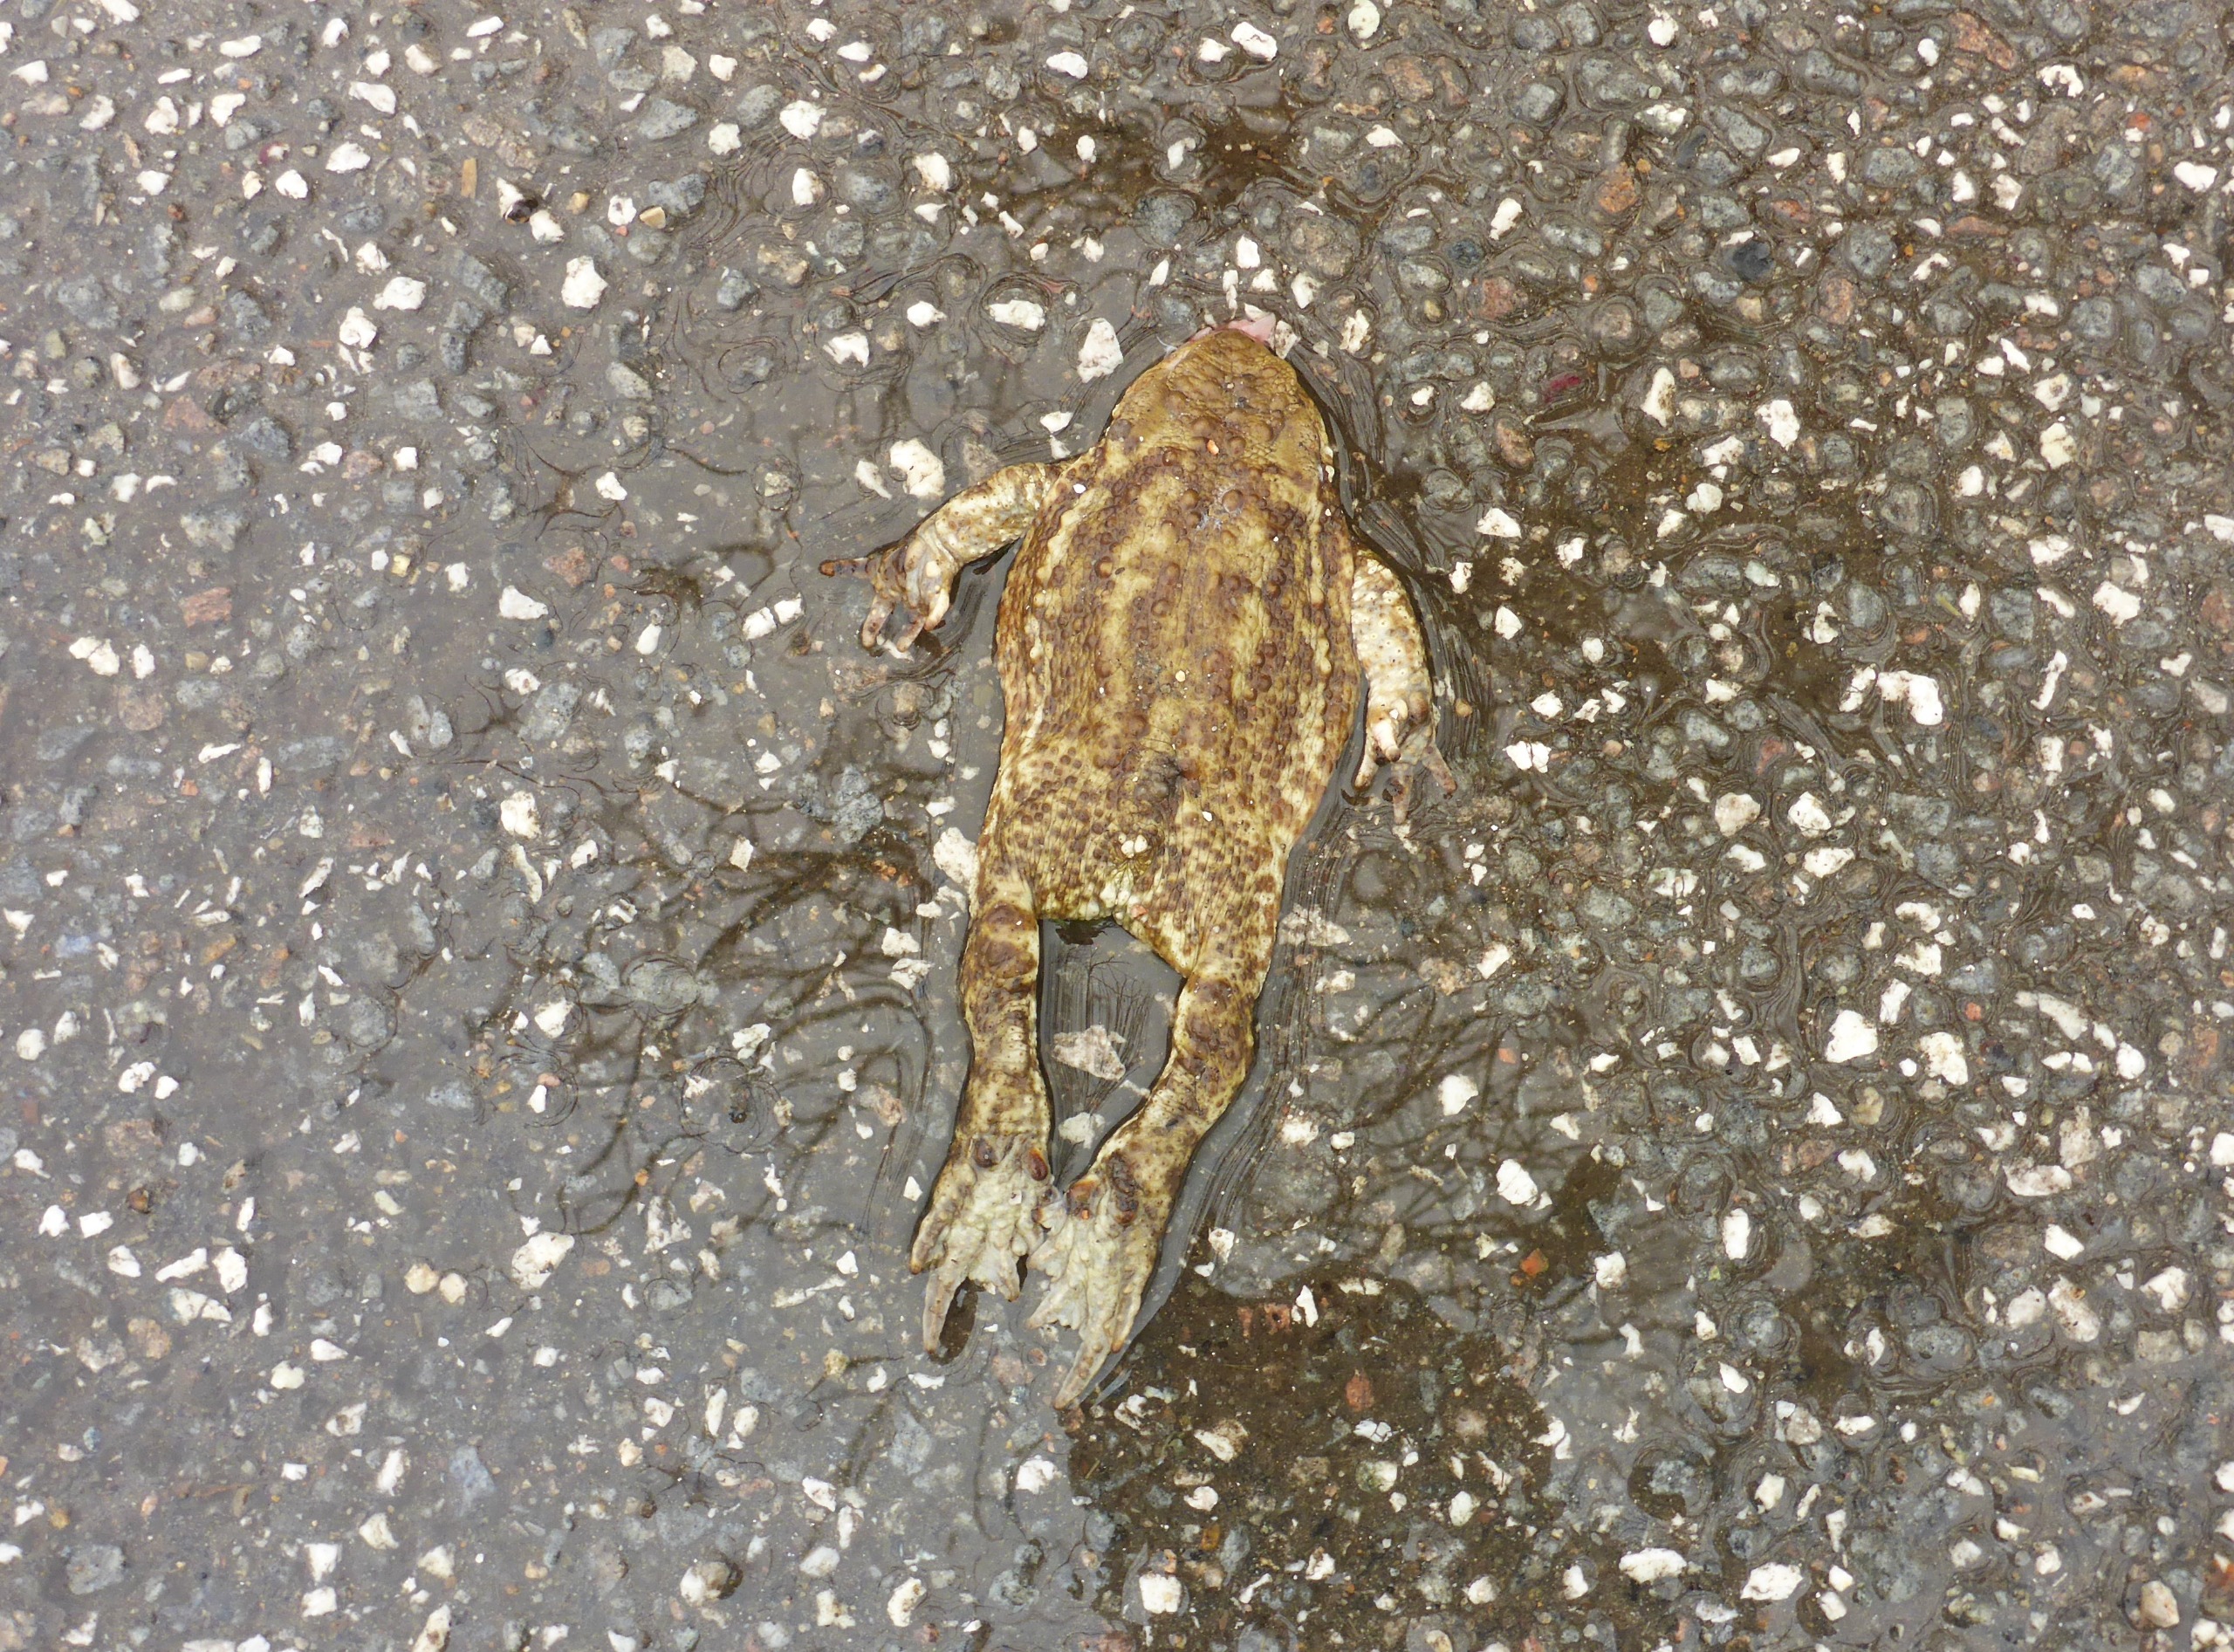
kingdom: Animalia
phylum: Chordata
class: Amphibia
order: Anura
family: Bufonidae
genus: Bufo
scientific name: Bufo bufo
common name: Skrubtudse
